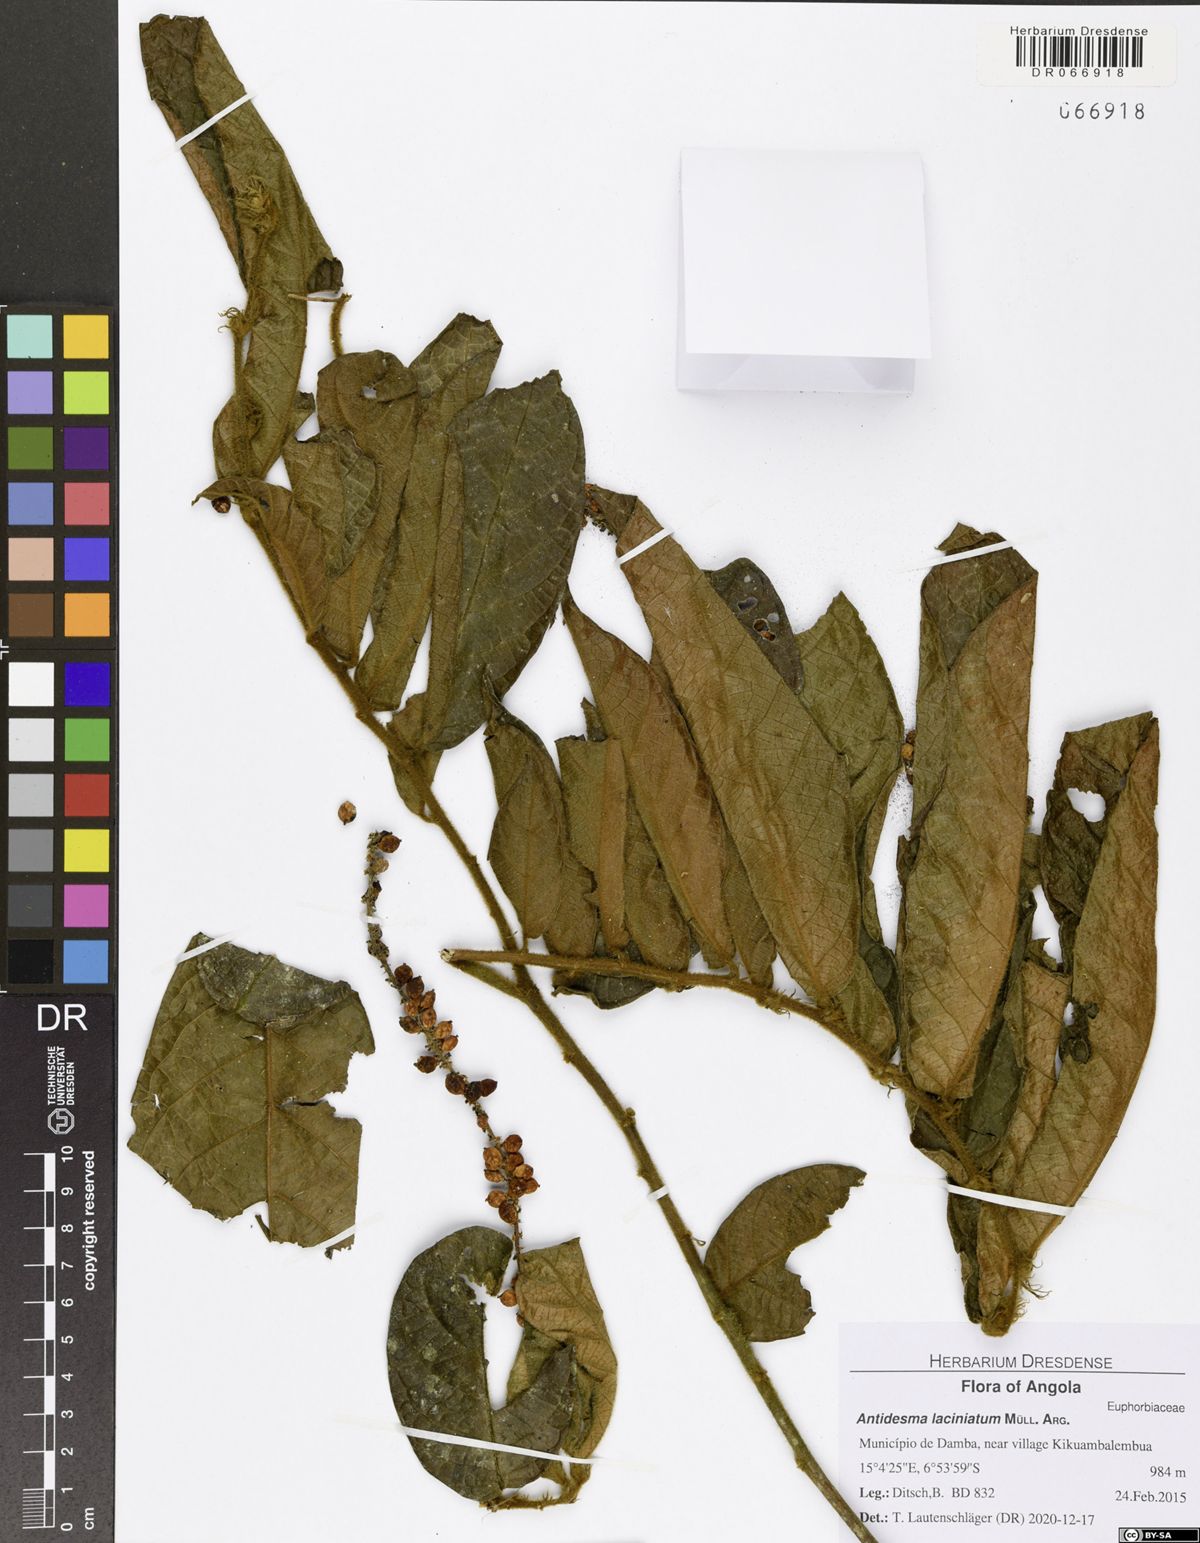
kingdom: Plantae
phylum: Tracheophyta
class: Magnoliopsida
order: Malpighiales
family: Phyllanthaceae
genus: Antidesma
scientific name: Antidesma laciniatum
